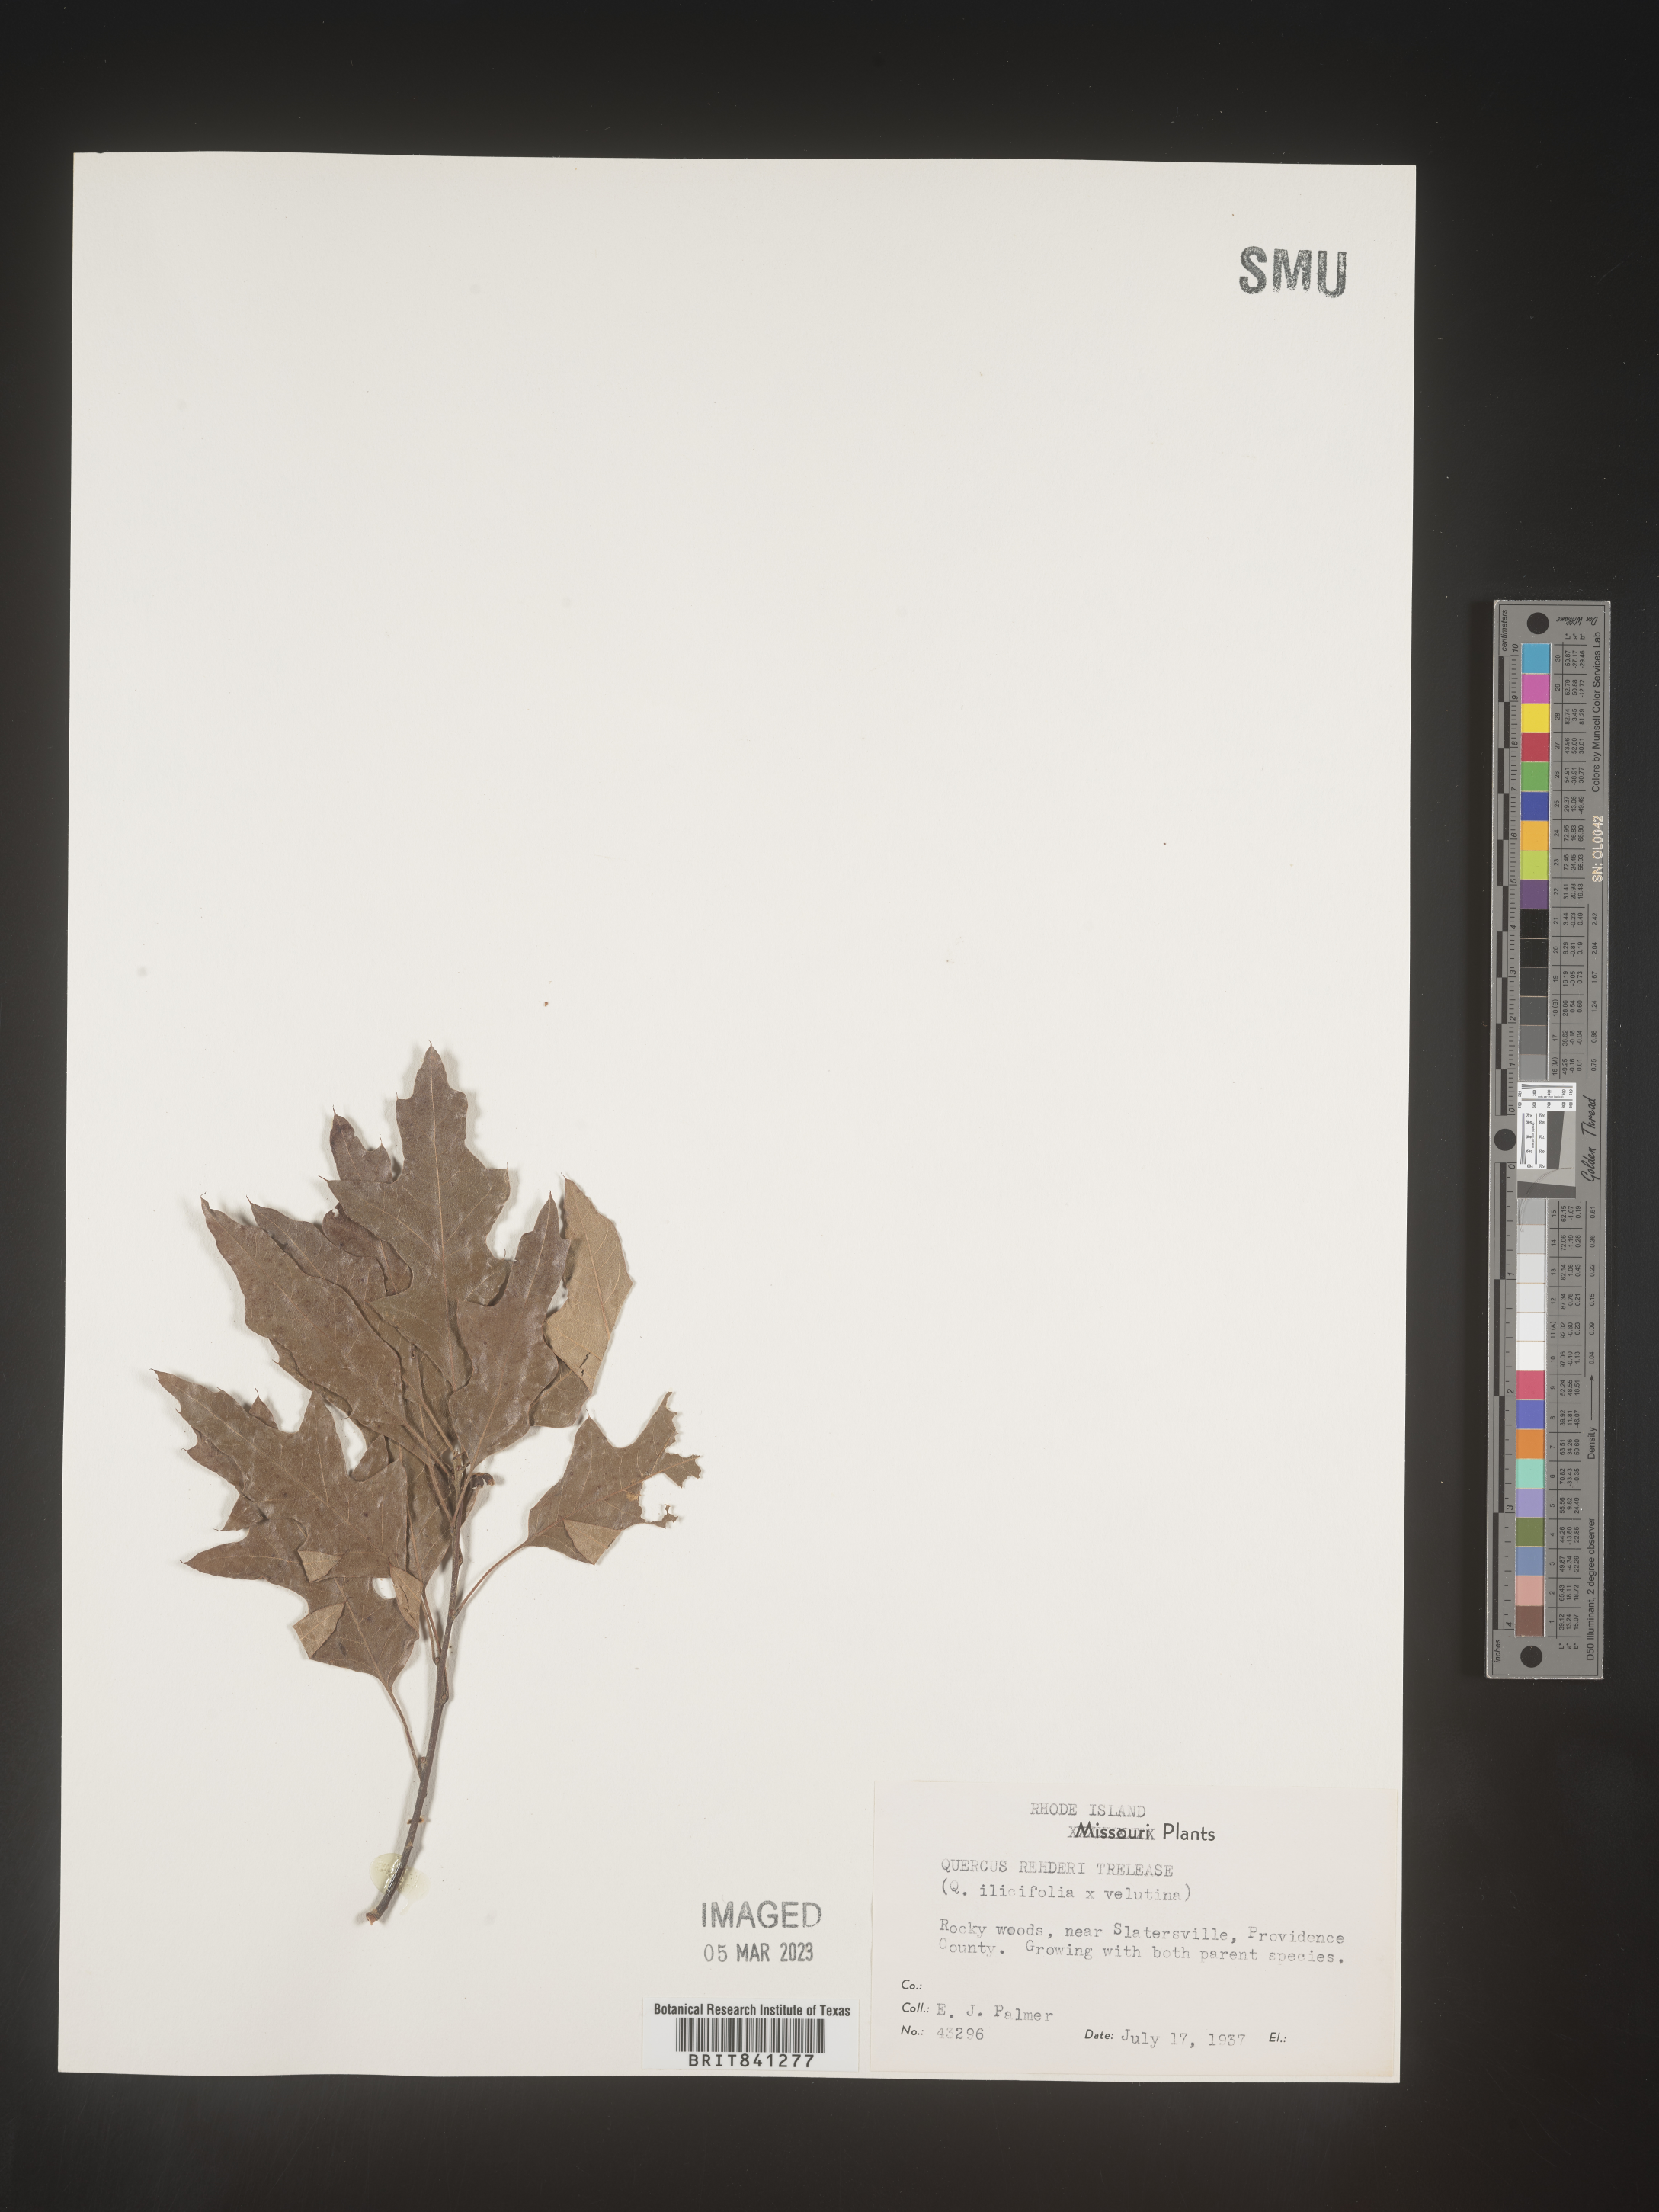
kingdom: Plantae
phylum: Tracheophyta
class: Magnoliopsida
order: Fagales
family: Fagaceae
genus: Quercus
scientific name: Quercus rehderiana
